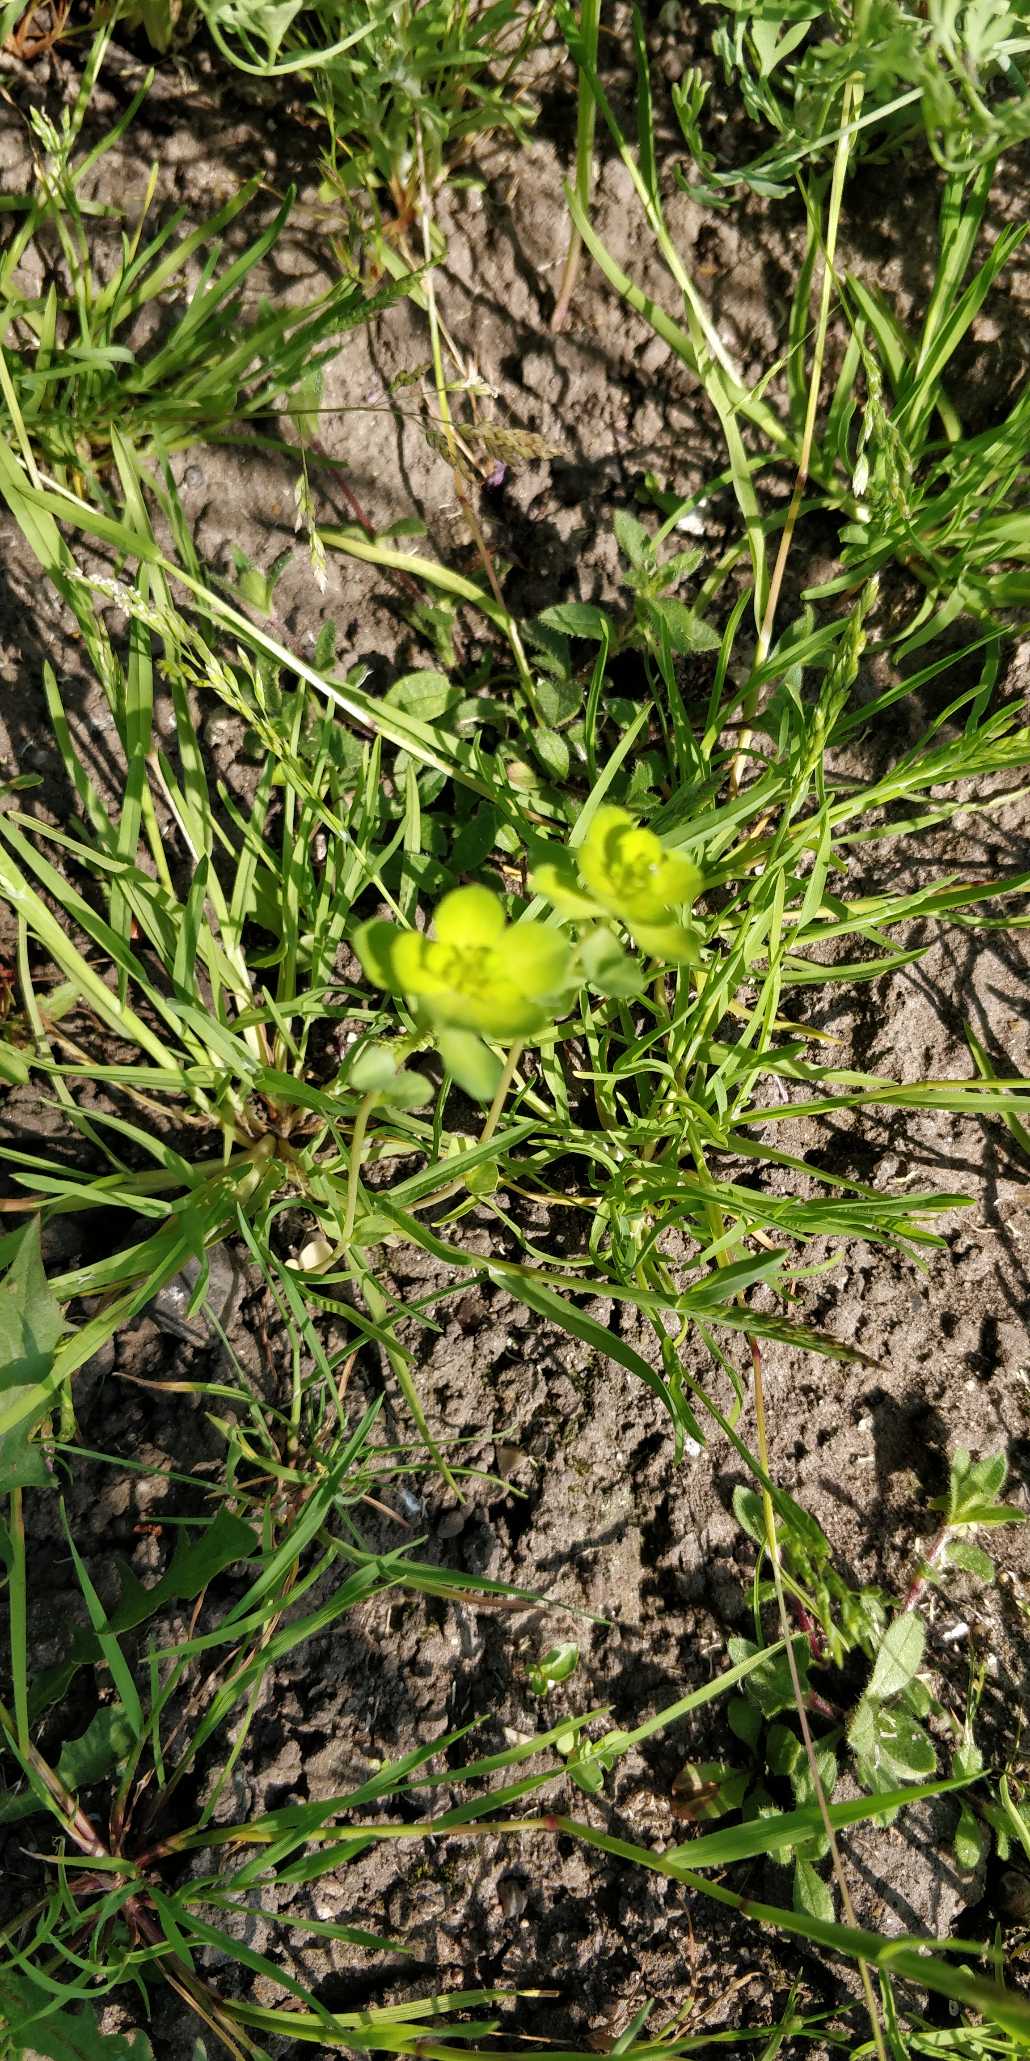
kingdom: Plantae
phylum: Tracheophyta
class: Magnoliopsida
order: Malpighiales
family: Euphorbiaceae
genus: Euphorbia
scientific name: Euphorbia helioscopia
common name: Skærm-vortemælk
